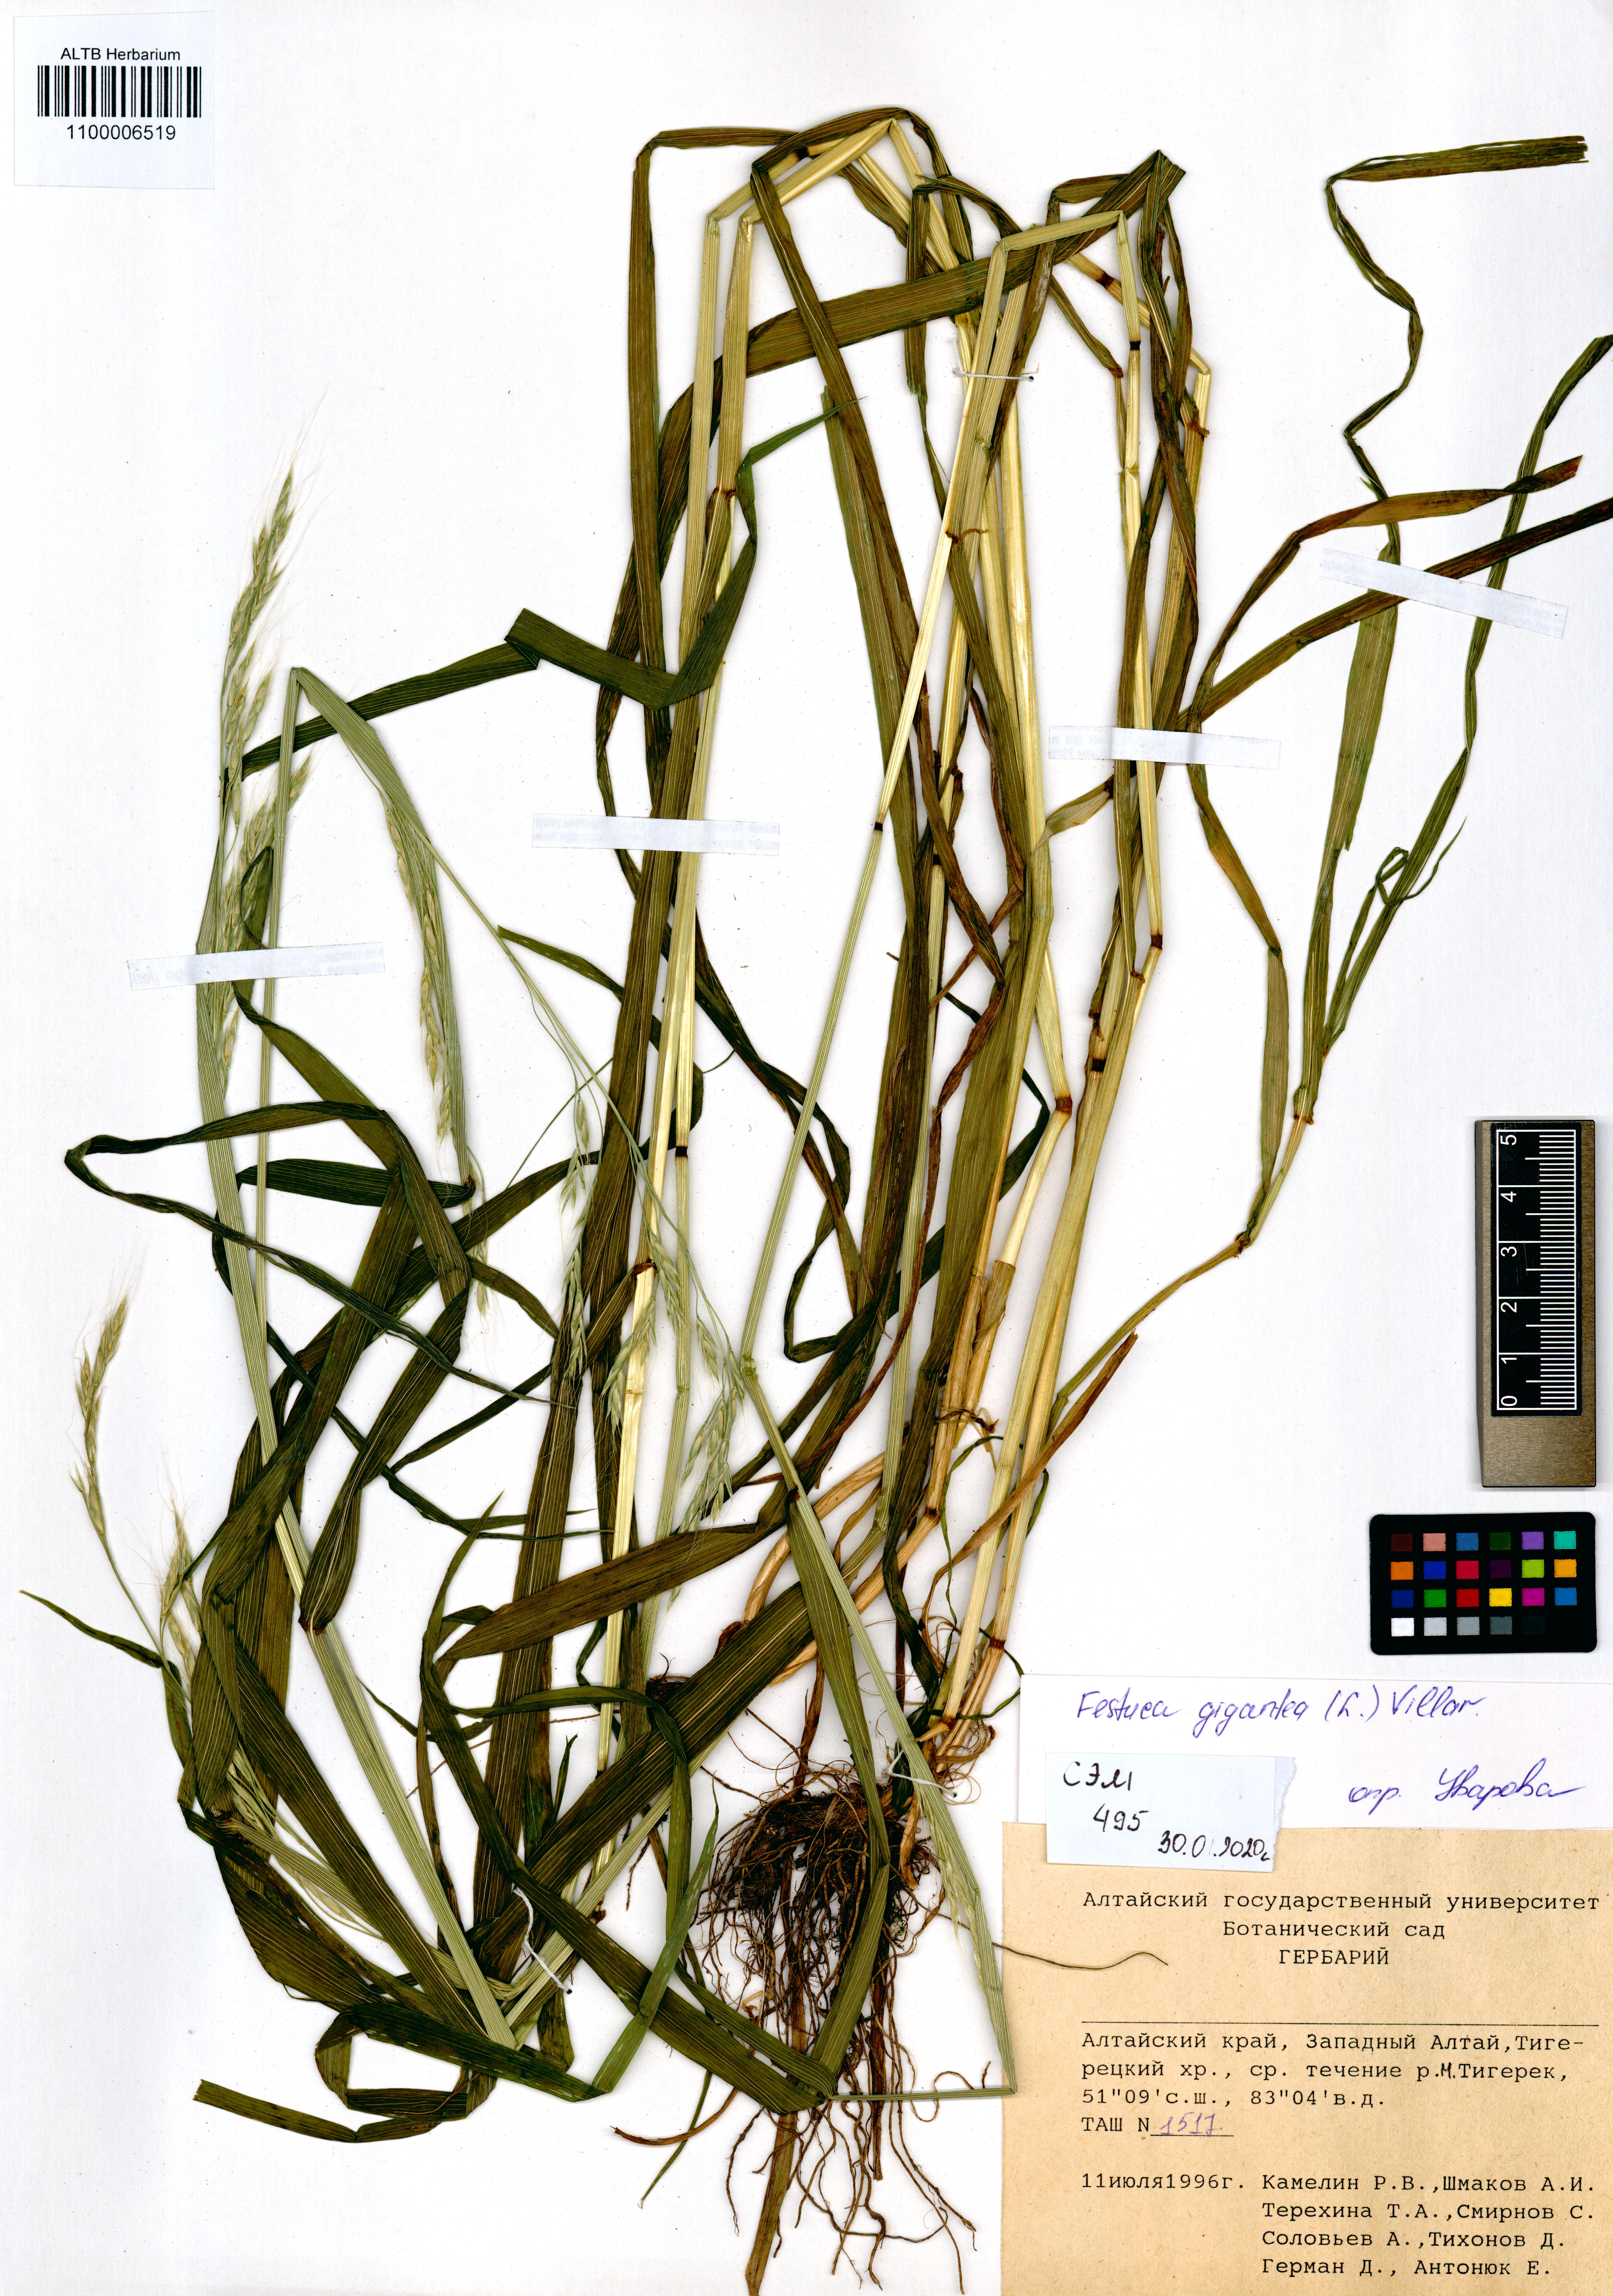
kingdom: Plantae
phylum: Tracheophyta
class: Liliopsida
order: Poales
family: Poaceae
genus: Lolium
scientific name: Lolium giganteum
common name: Giant fescue
